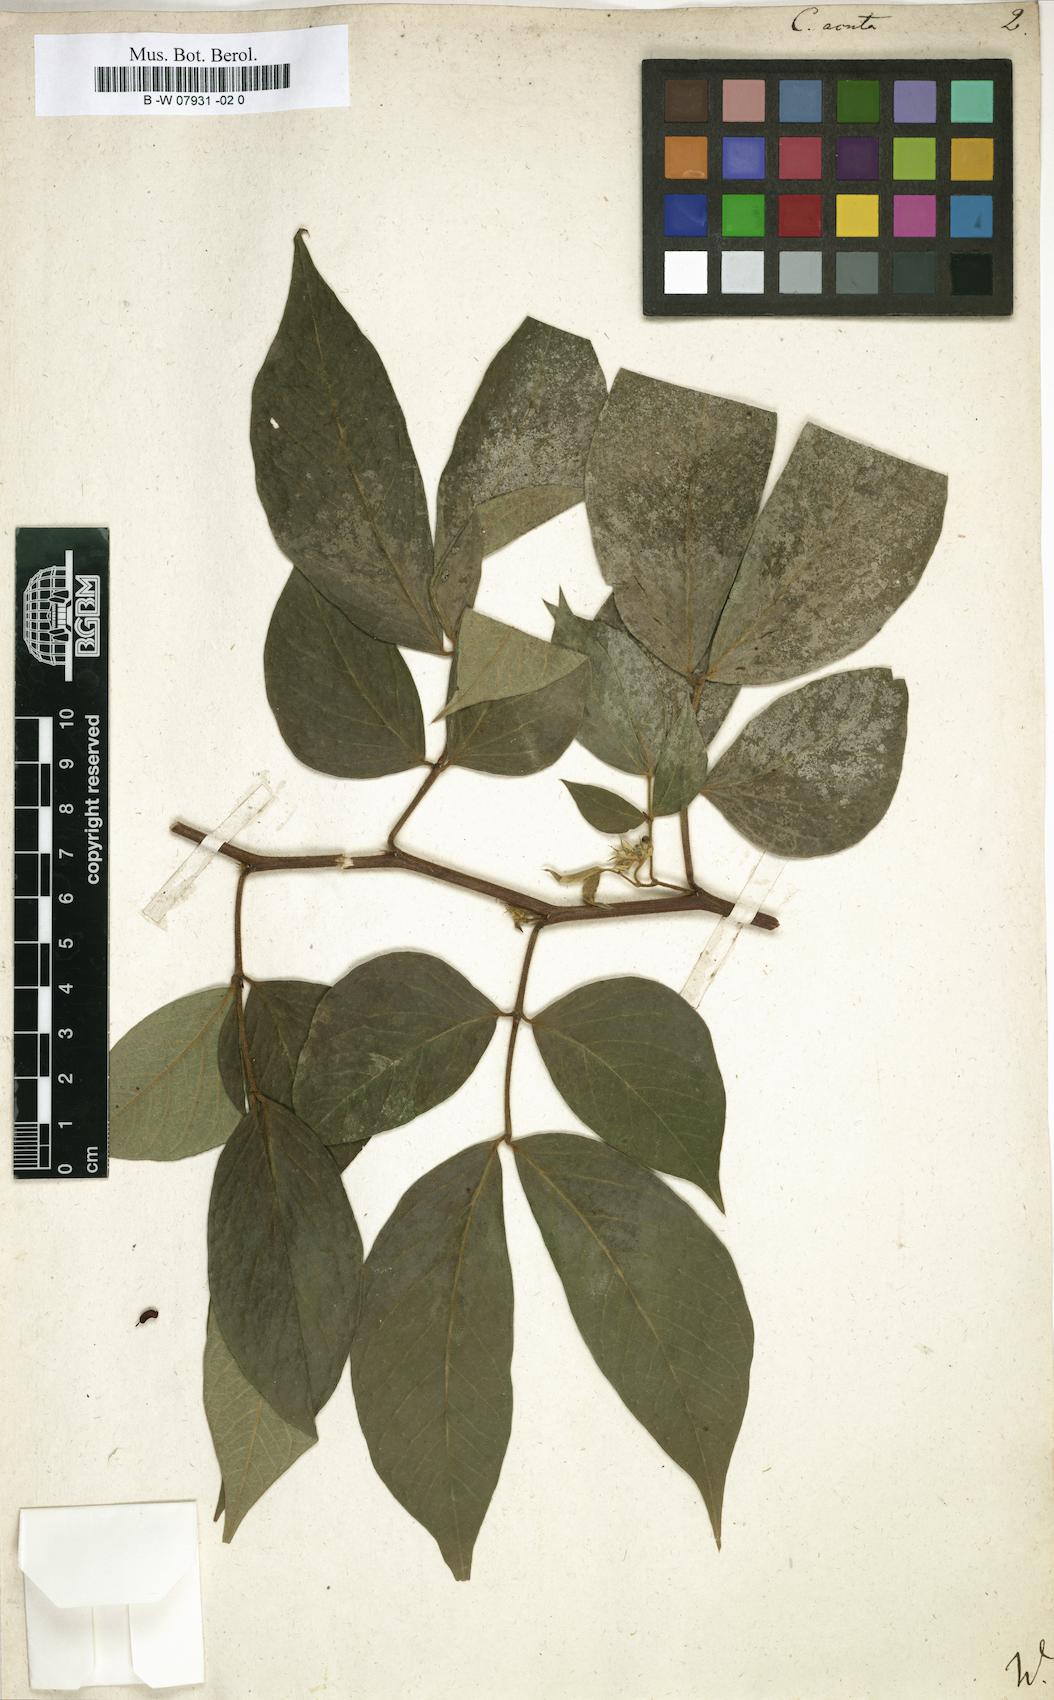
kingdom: Plantae
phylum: Tracheophyta
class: Magnoliopsida
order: Fabales
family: Fabaceae
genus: Senna
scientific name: Senna cumingii
